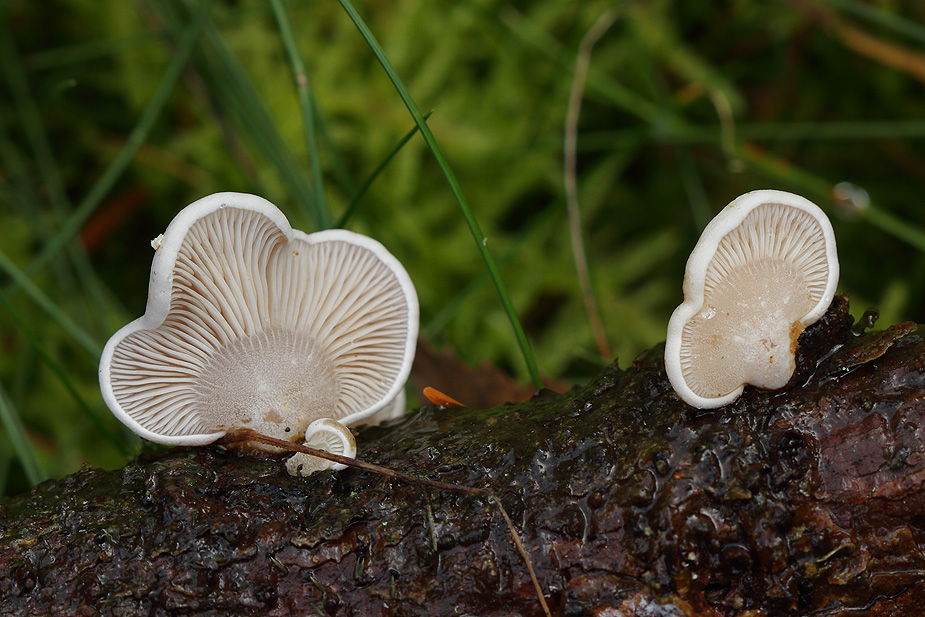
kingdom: Fungi
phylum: Basidiomycota
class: Agaricomycetes
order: Agaricales
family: Mycenaceae
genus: Panellus
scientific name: Panellus mitis
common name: mild epaulethat
